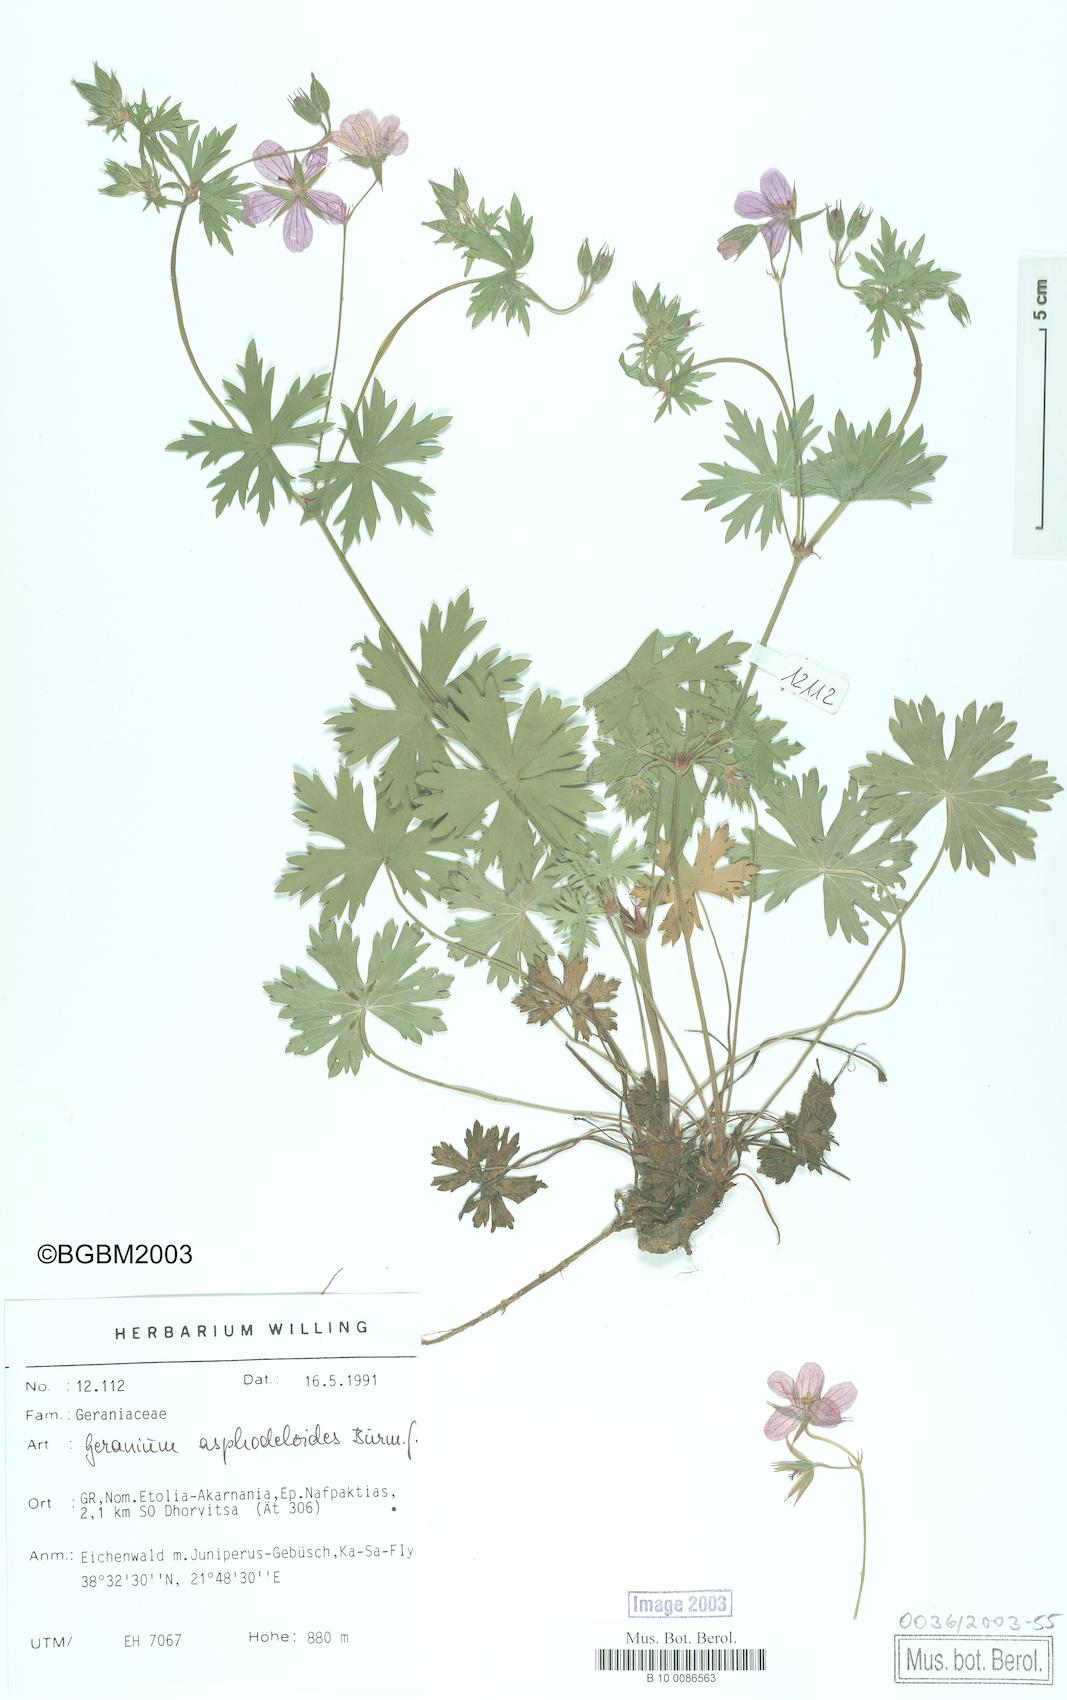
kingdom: Plantae
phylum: Tracheophyta
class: Magnoliopsida
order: Geraniales
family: Geraniaceae
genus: Geranium
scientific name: Geranium asphodeloides
